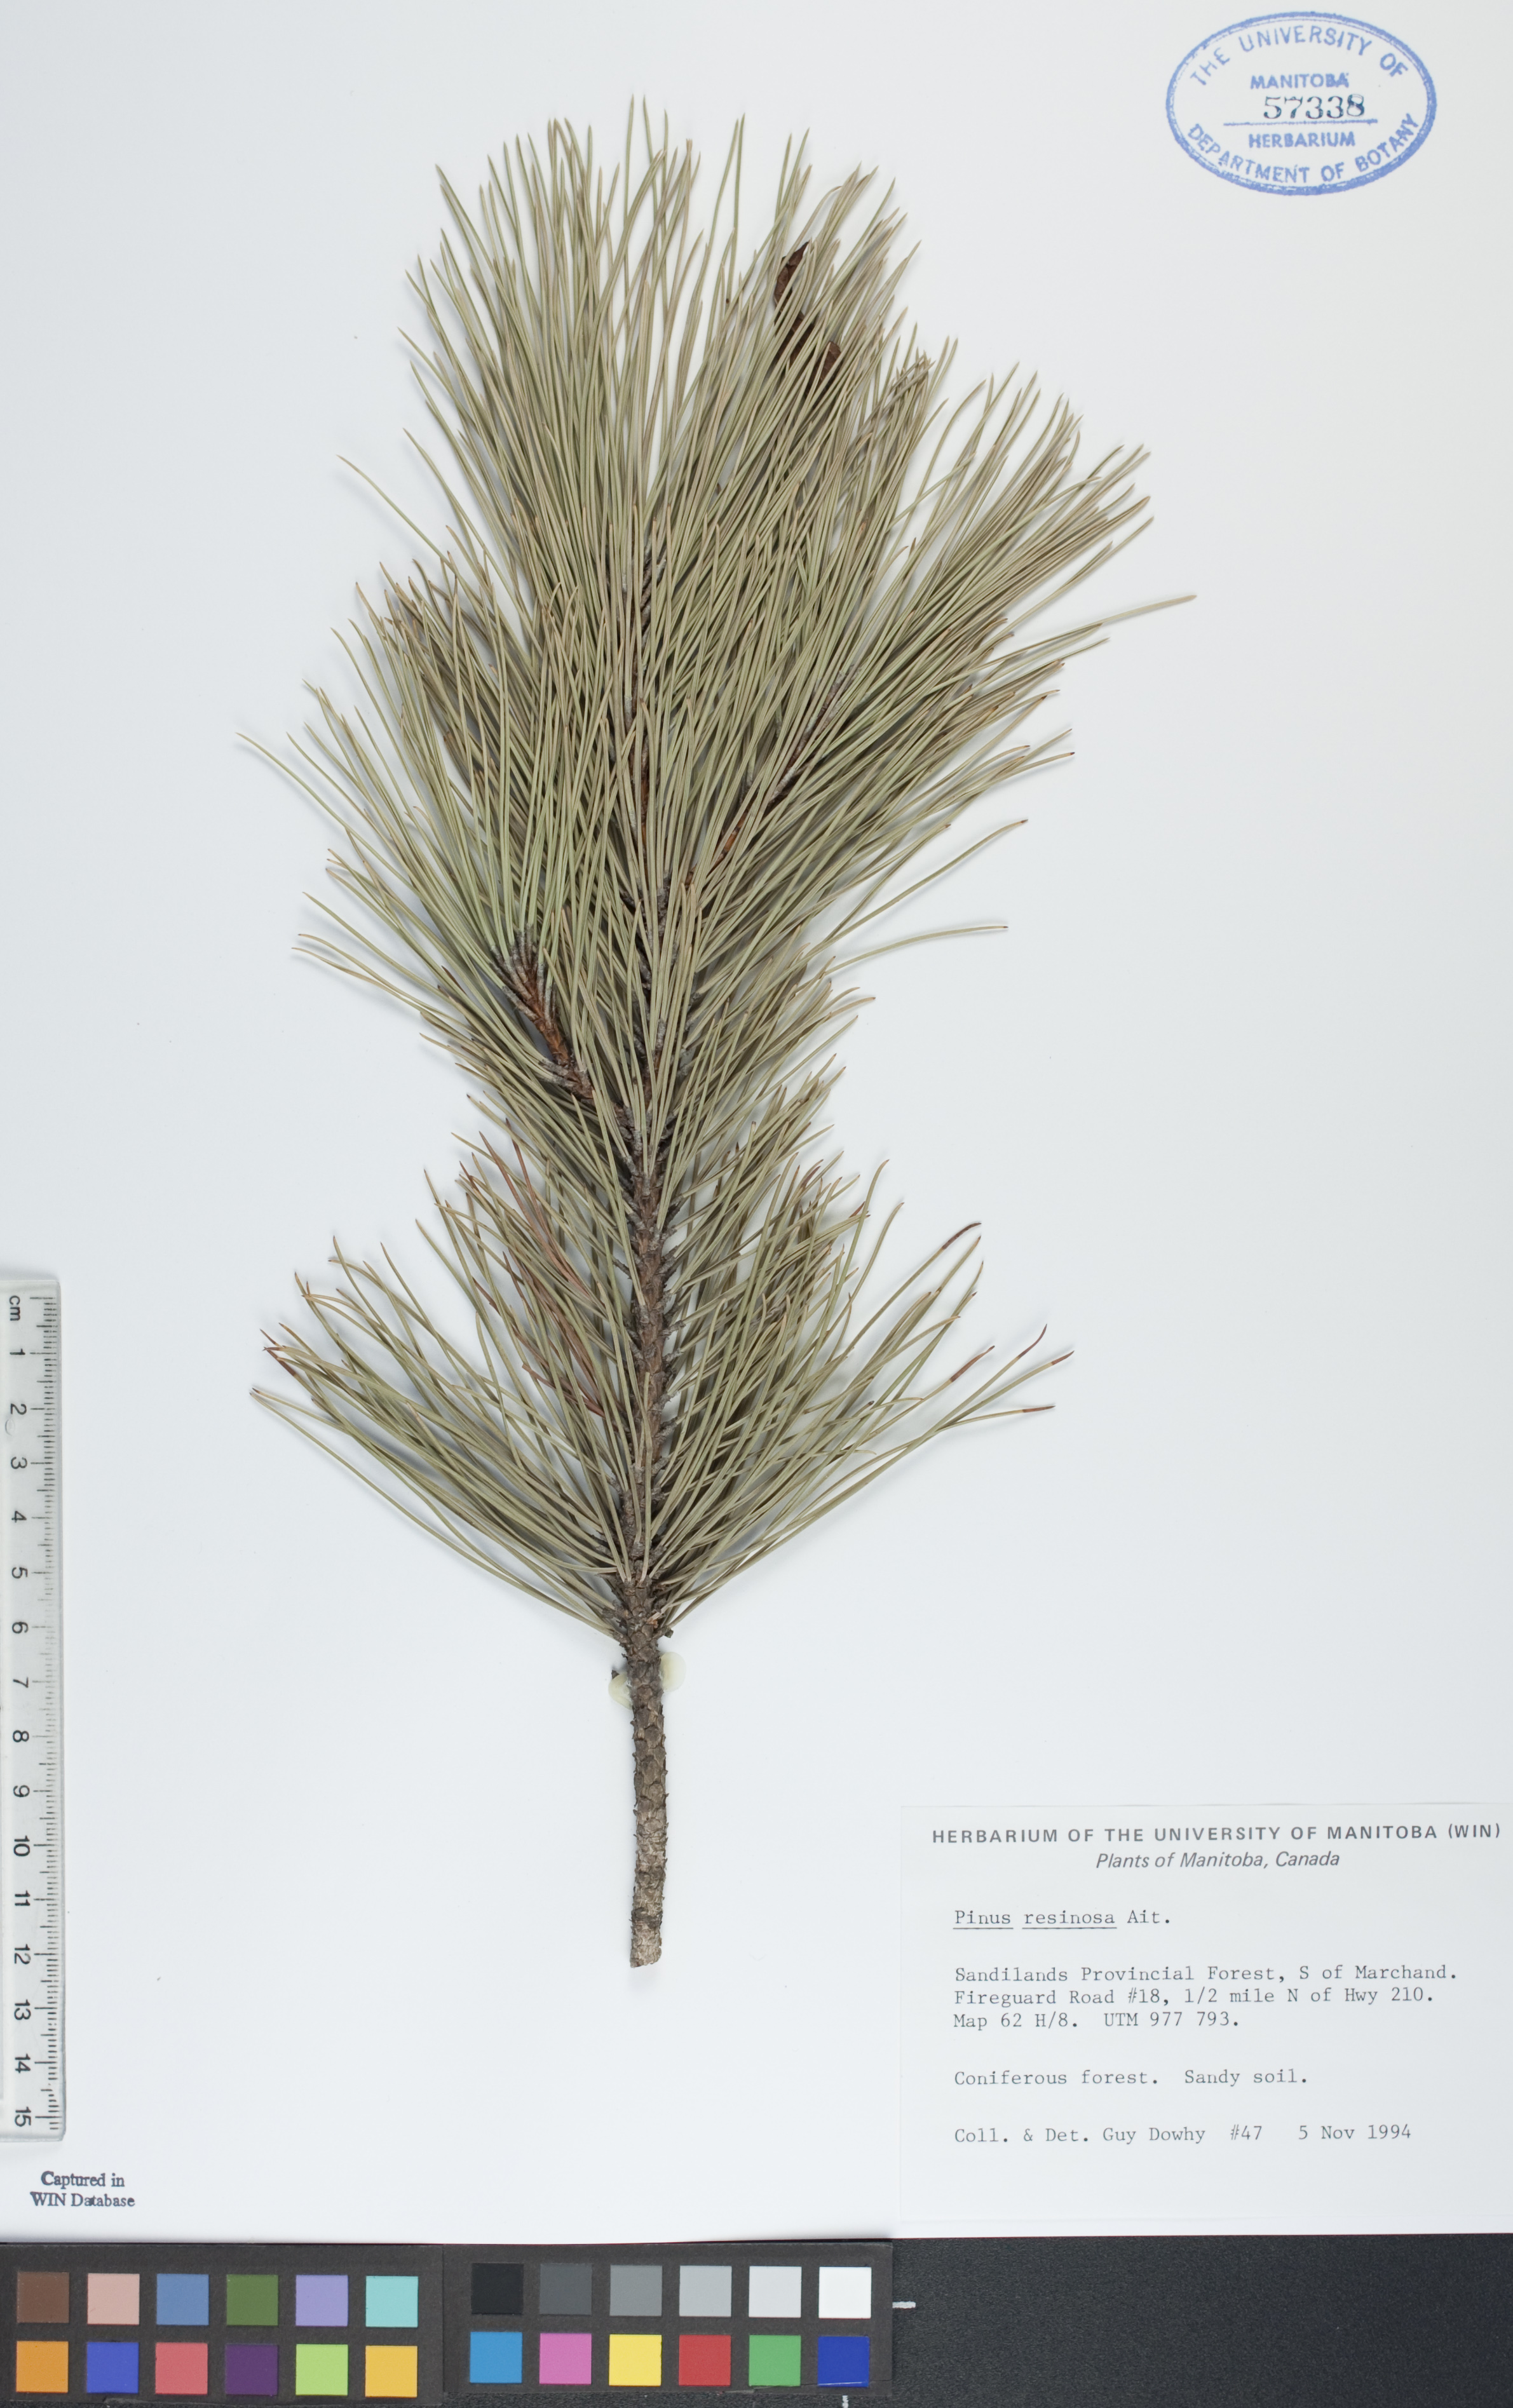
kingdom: Plantae
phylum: Tracheophyta
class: Pinopsida
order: Pinales
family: Pinaceae
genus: Pinus
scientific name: Pinus resinosa
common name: Norway pine
